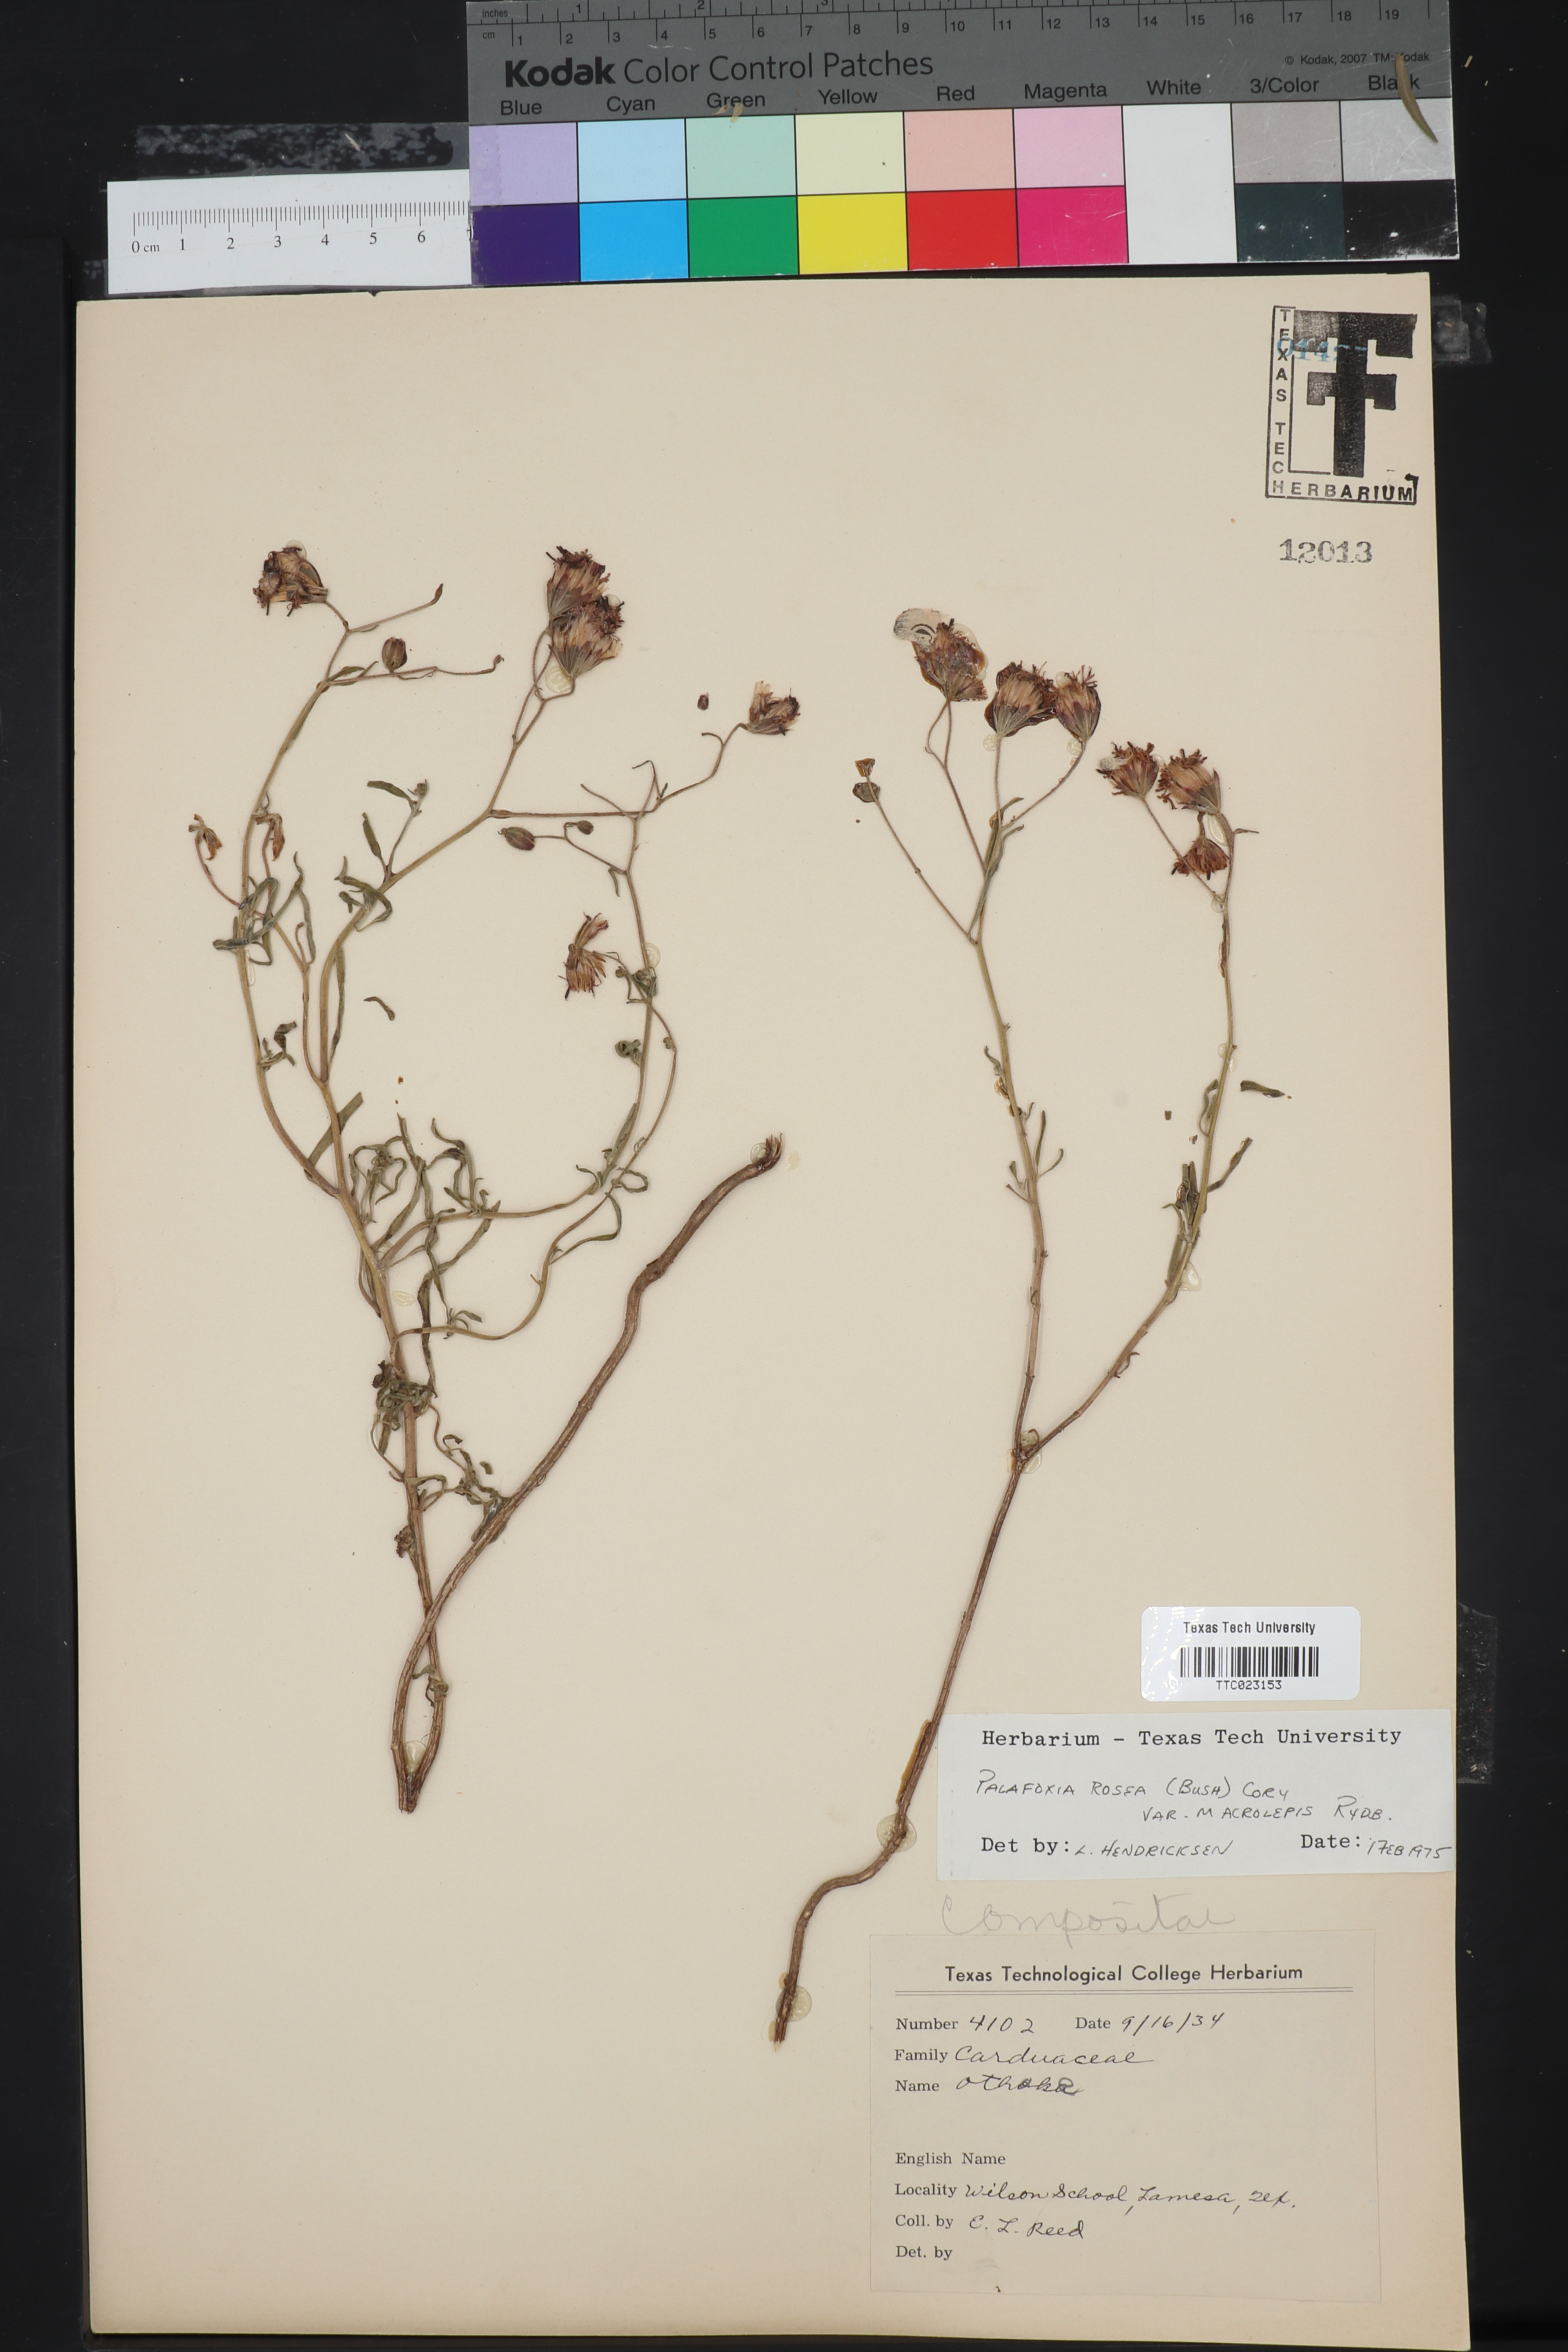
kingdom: Plantae
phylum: Tracheophyta
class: Magnoliopsida
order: Asterales
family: Asteraceae
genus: Palafoxia
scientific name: Palafoxia rosea
